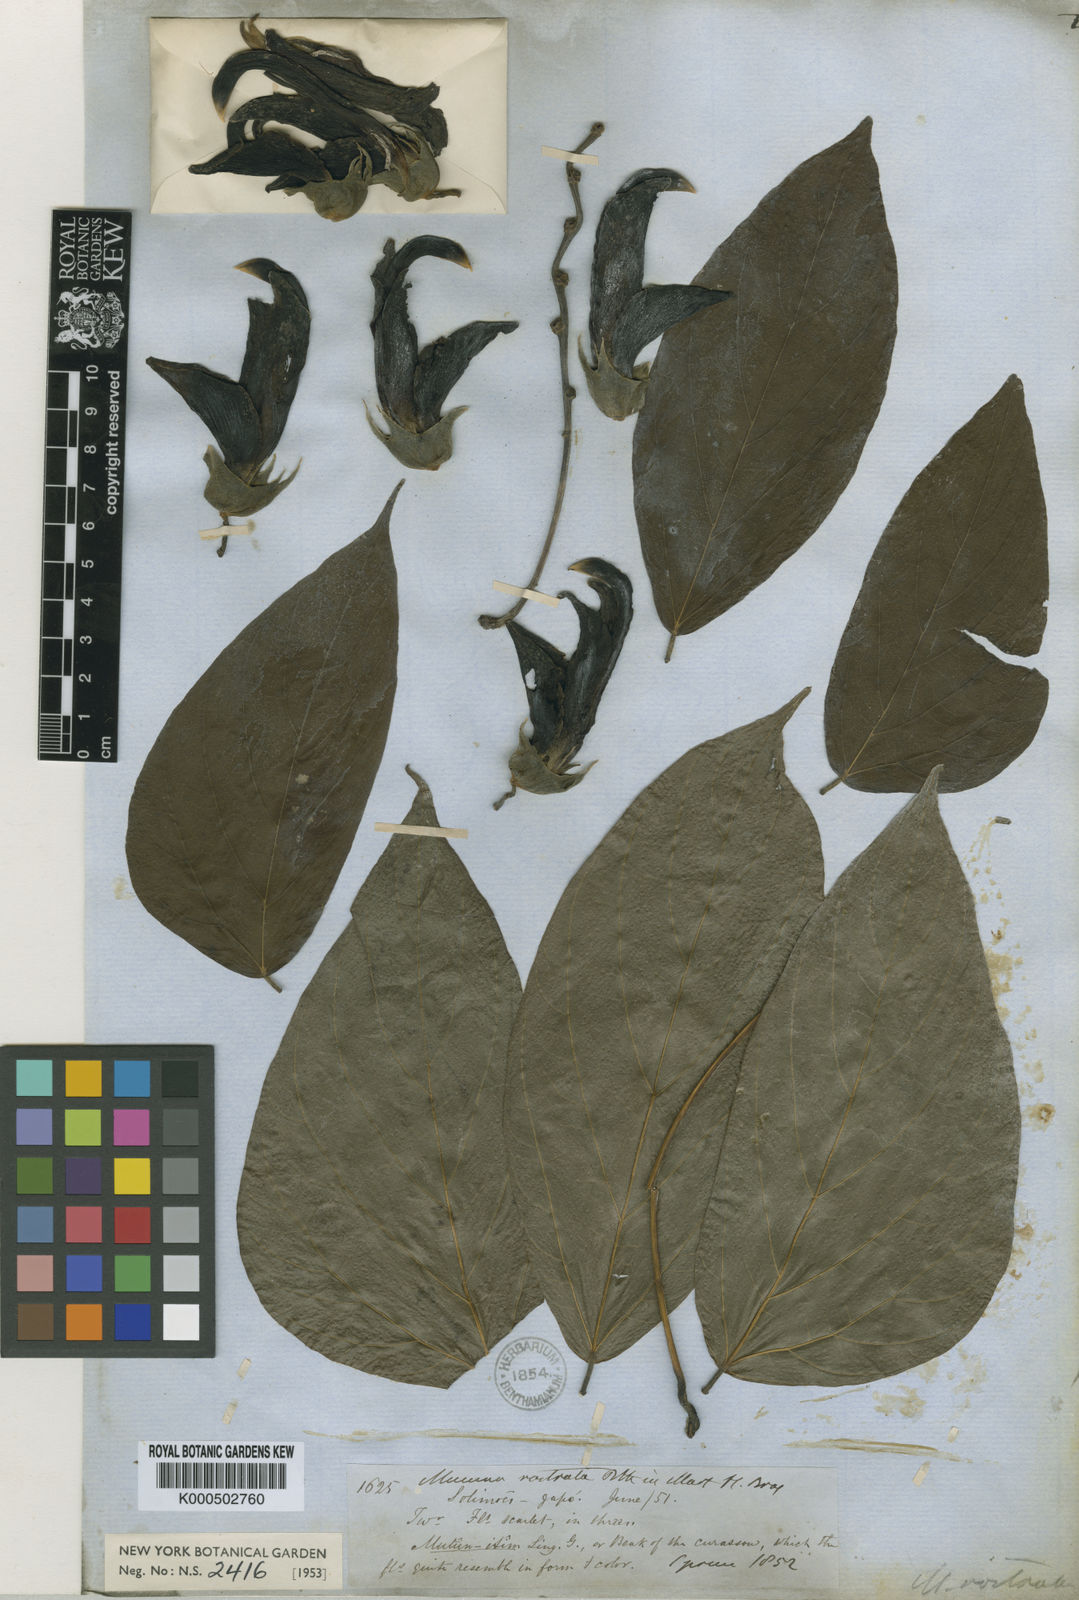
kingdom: Plantae
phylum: Tracheophyta
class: Magnoliopsida
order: Fabales
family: Fabaceae
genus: Mucuna
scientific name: Mucuna rostrata
